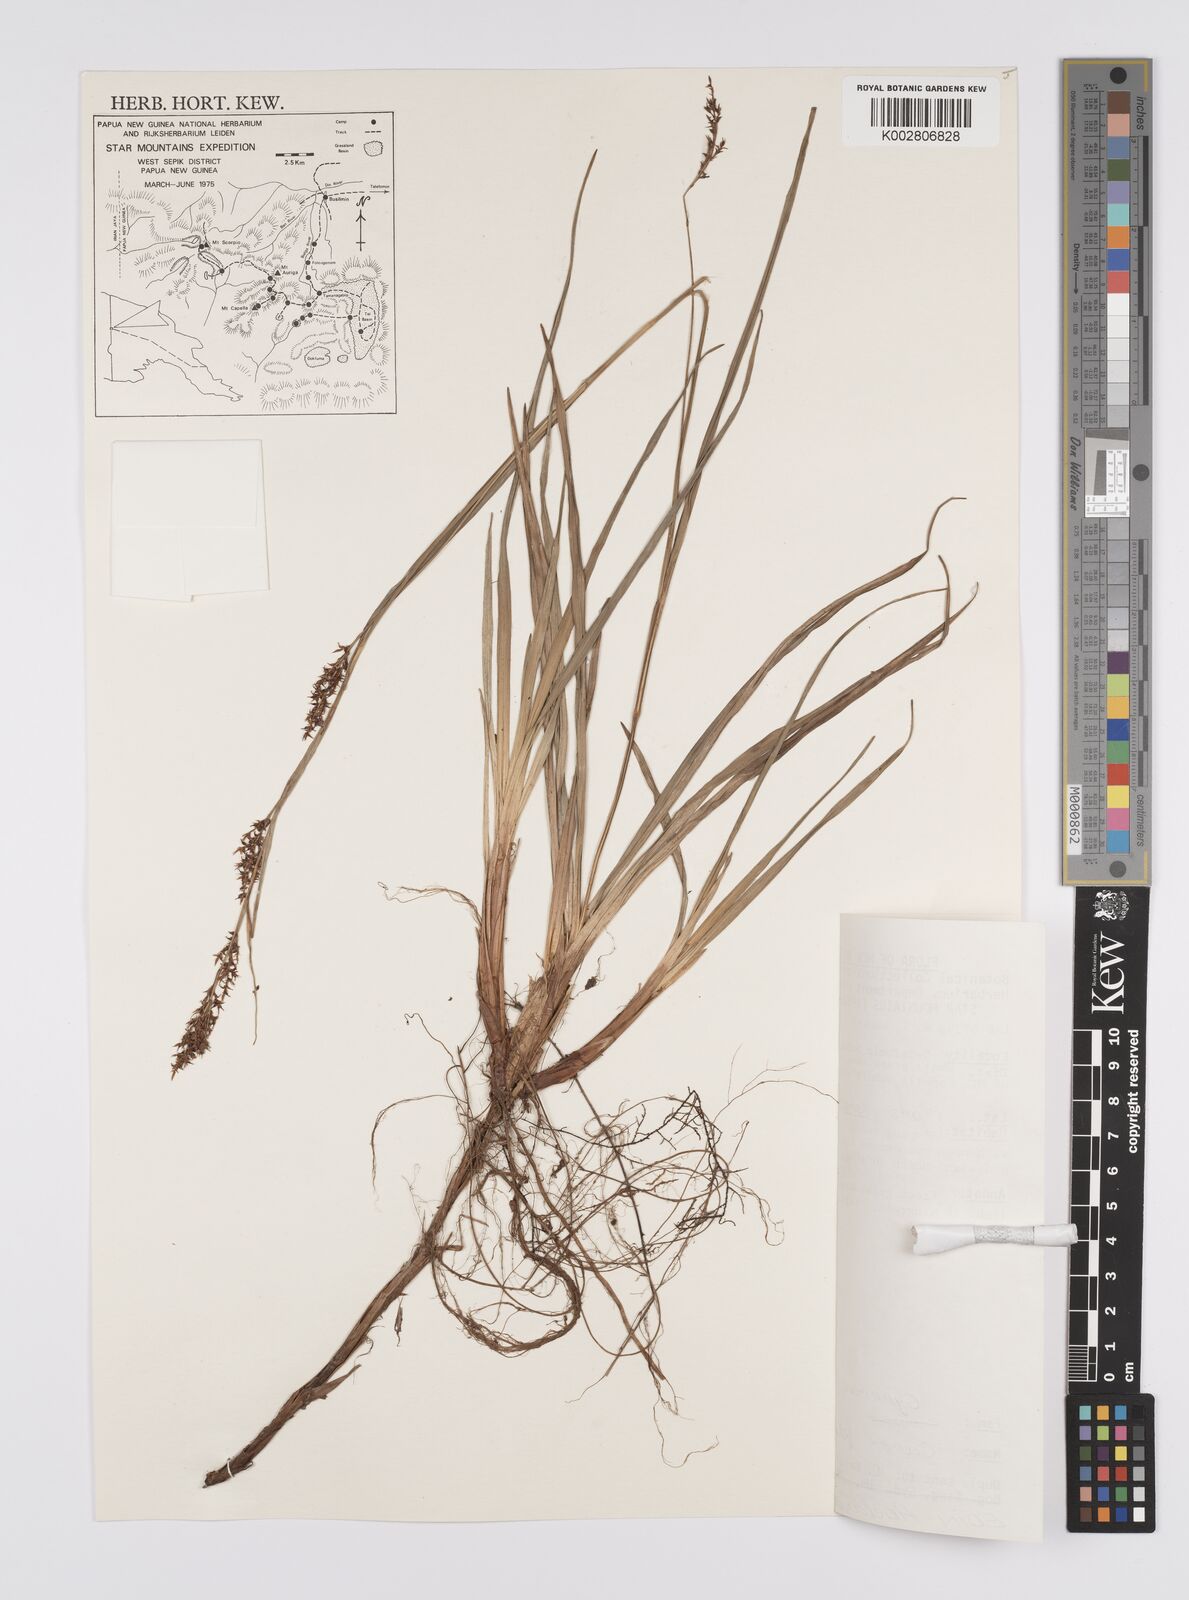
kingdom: Plantae
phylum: Tracheophyta
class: Liliopsida
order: Poales
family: Cyperaceae
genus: Carex
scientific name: Carex filicina
